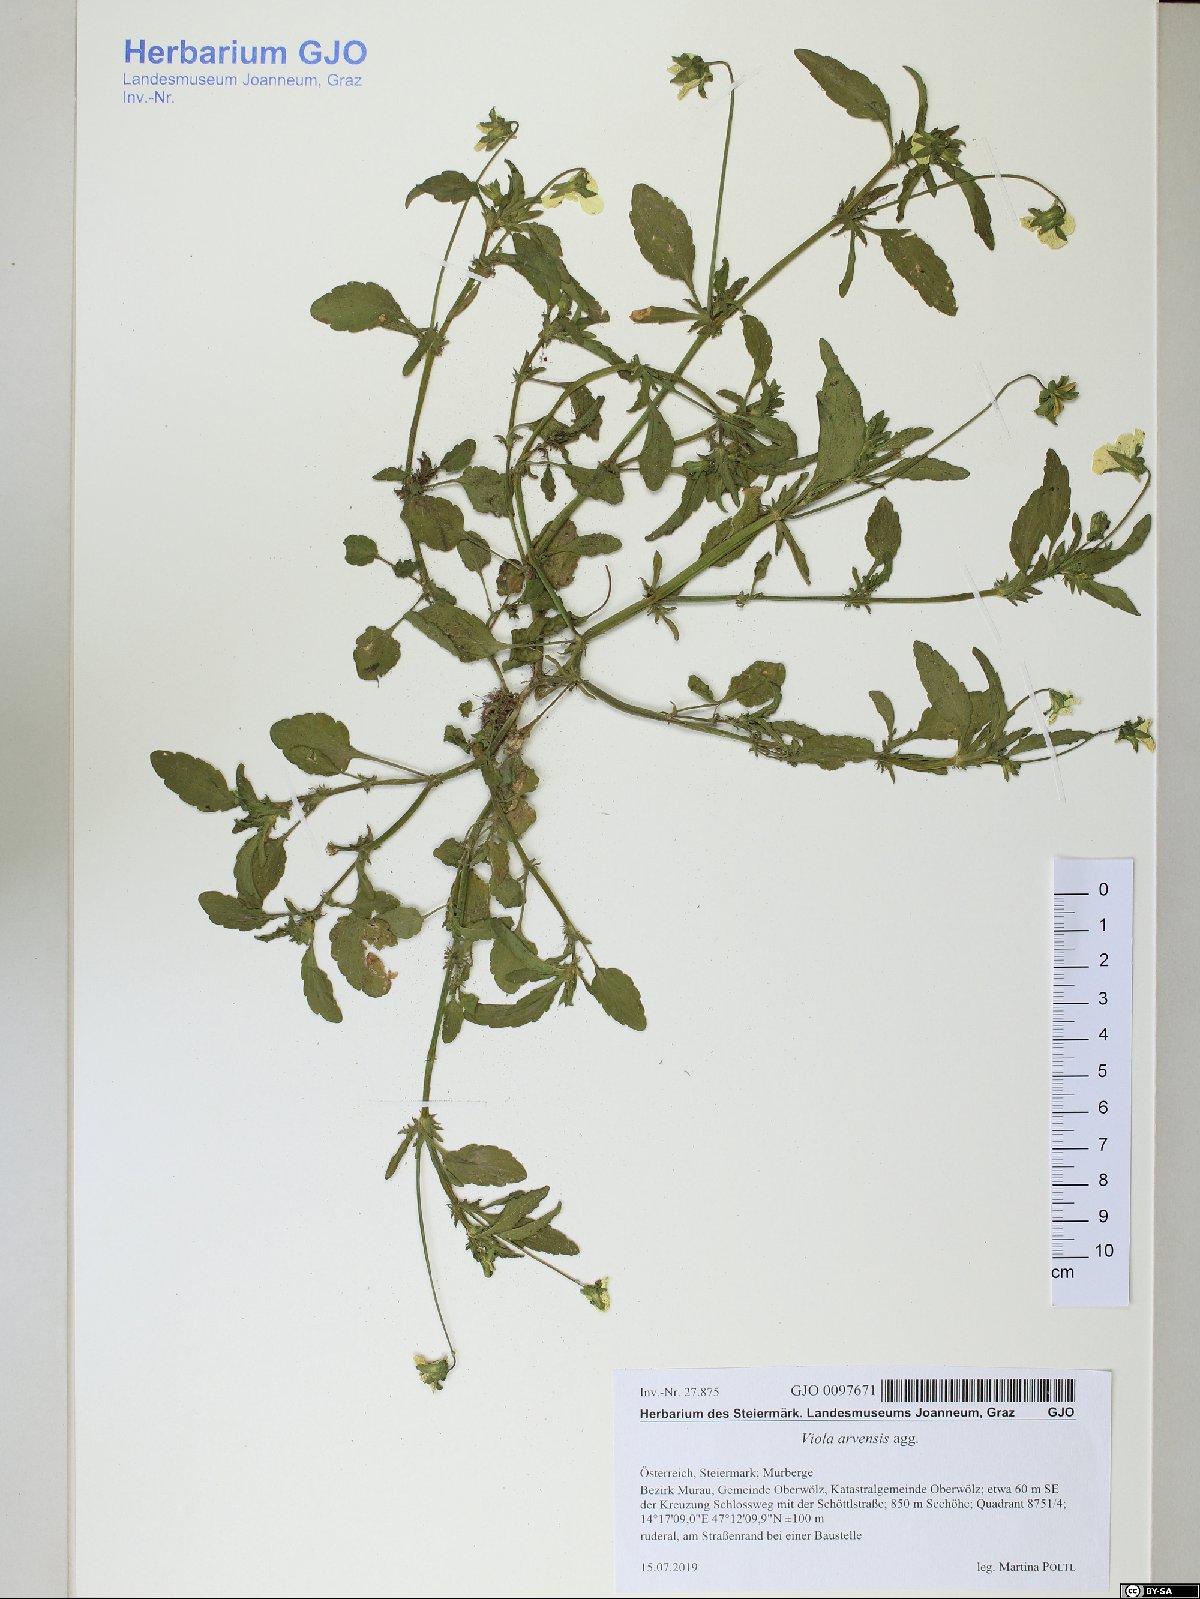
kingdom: Plantae
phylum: Tracheophyta
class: Magnoliopsida
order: Malpighiales
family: Violaceae
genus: Viola
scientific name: Viola arvensis
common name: Field pansy
